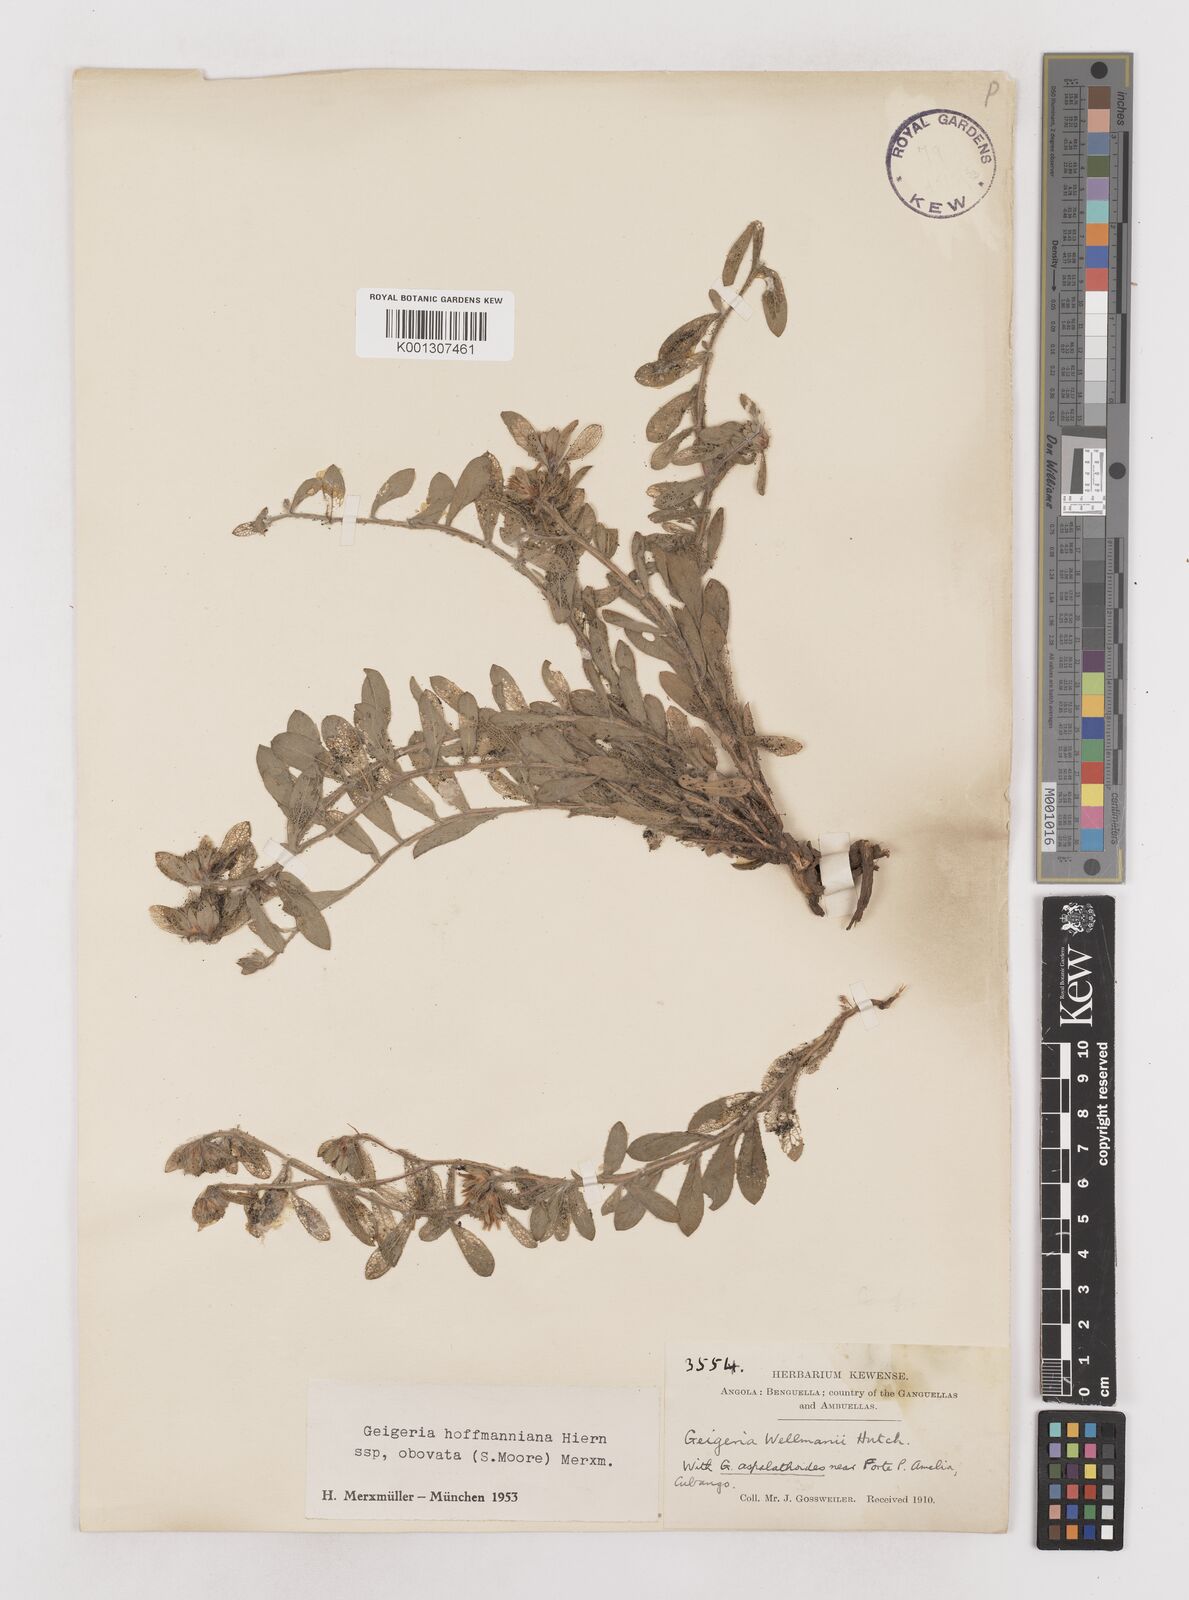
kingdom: Plantae
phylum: Tracheophyta
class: Magnoliopsida
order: Asterales
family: Asteraceae
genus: Geigeria
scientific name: Geigeria hoffmanniana
